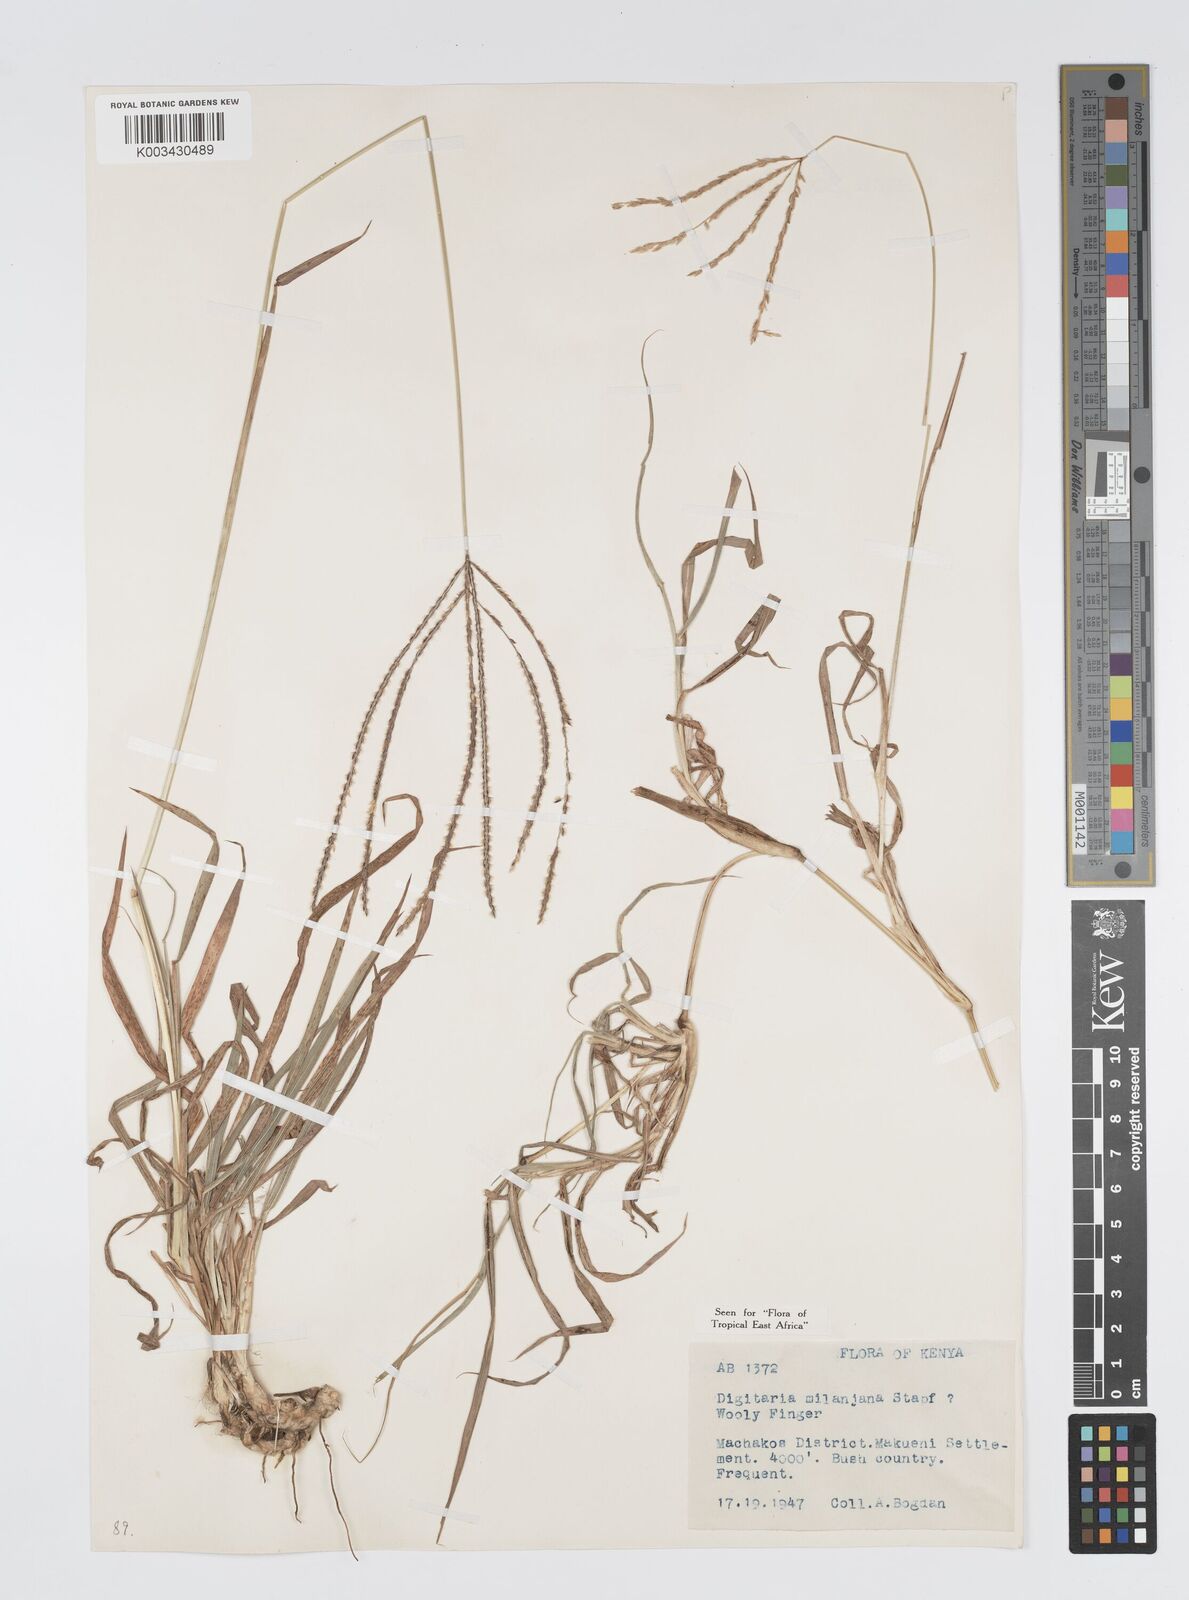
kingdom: Plantae
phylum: Tracheophyta
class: Liliopsida
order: Poales
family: Poaceae
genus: Digitaria
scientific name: Digitaria milanjiana
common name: Madagascar crabgrass
